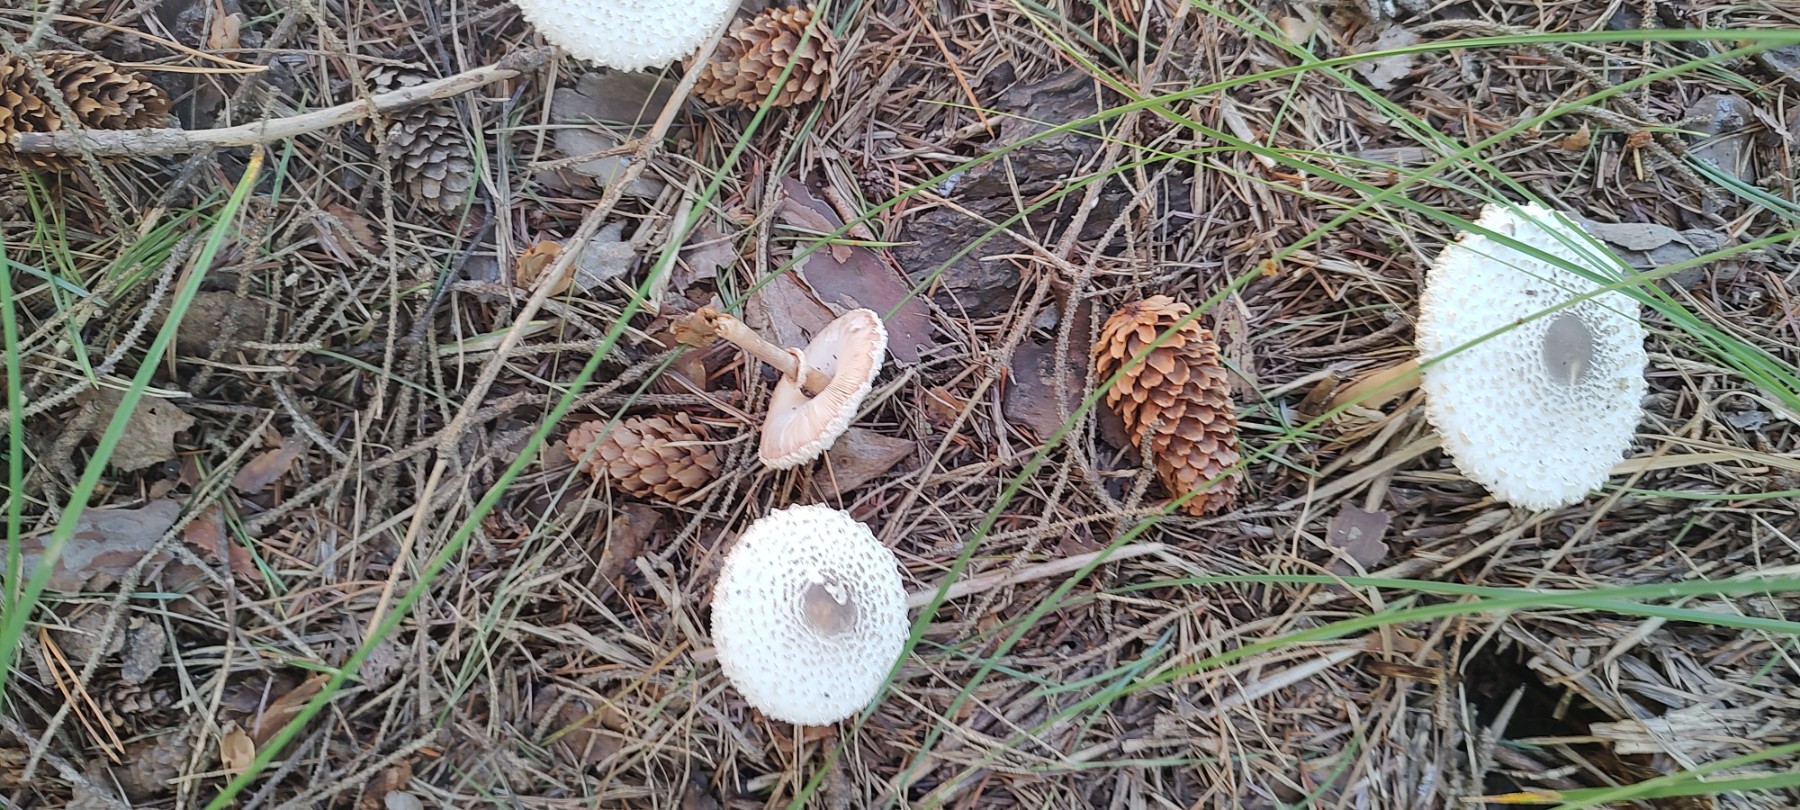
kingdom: Fungi
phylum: Basidiomycota
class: Agaricomycetes
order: Agaricales
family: Agaricaceae
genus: Leucoagaricus
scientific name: Leucoagaricus nympharum
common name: gran-silkehat
